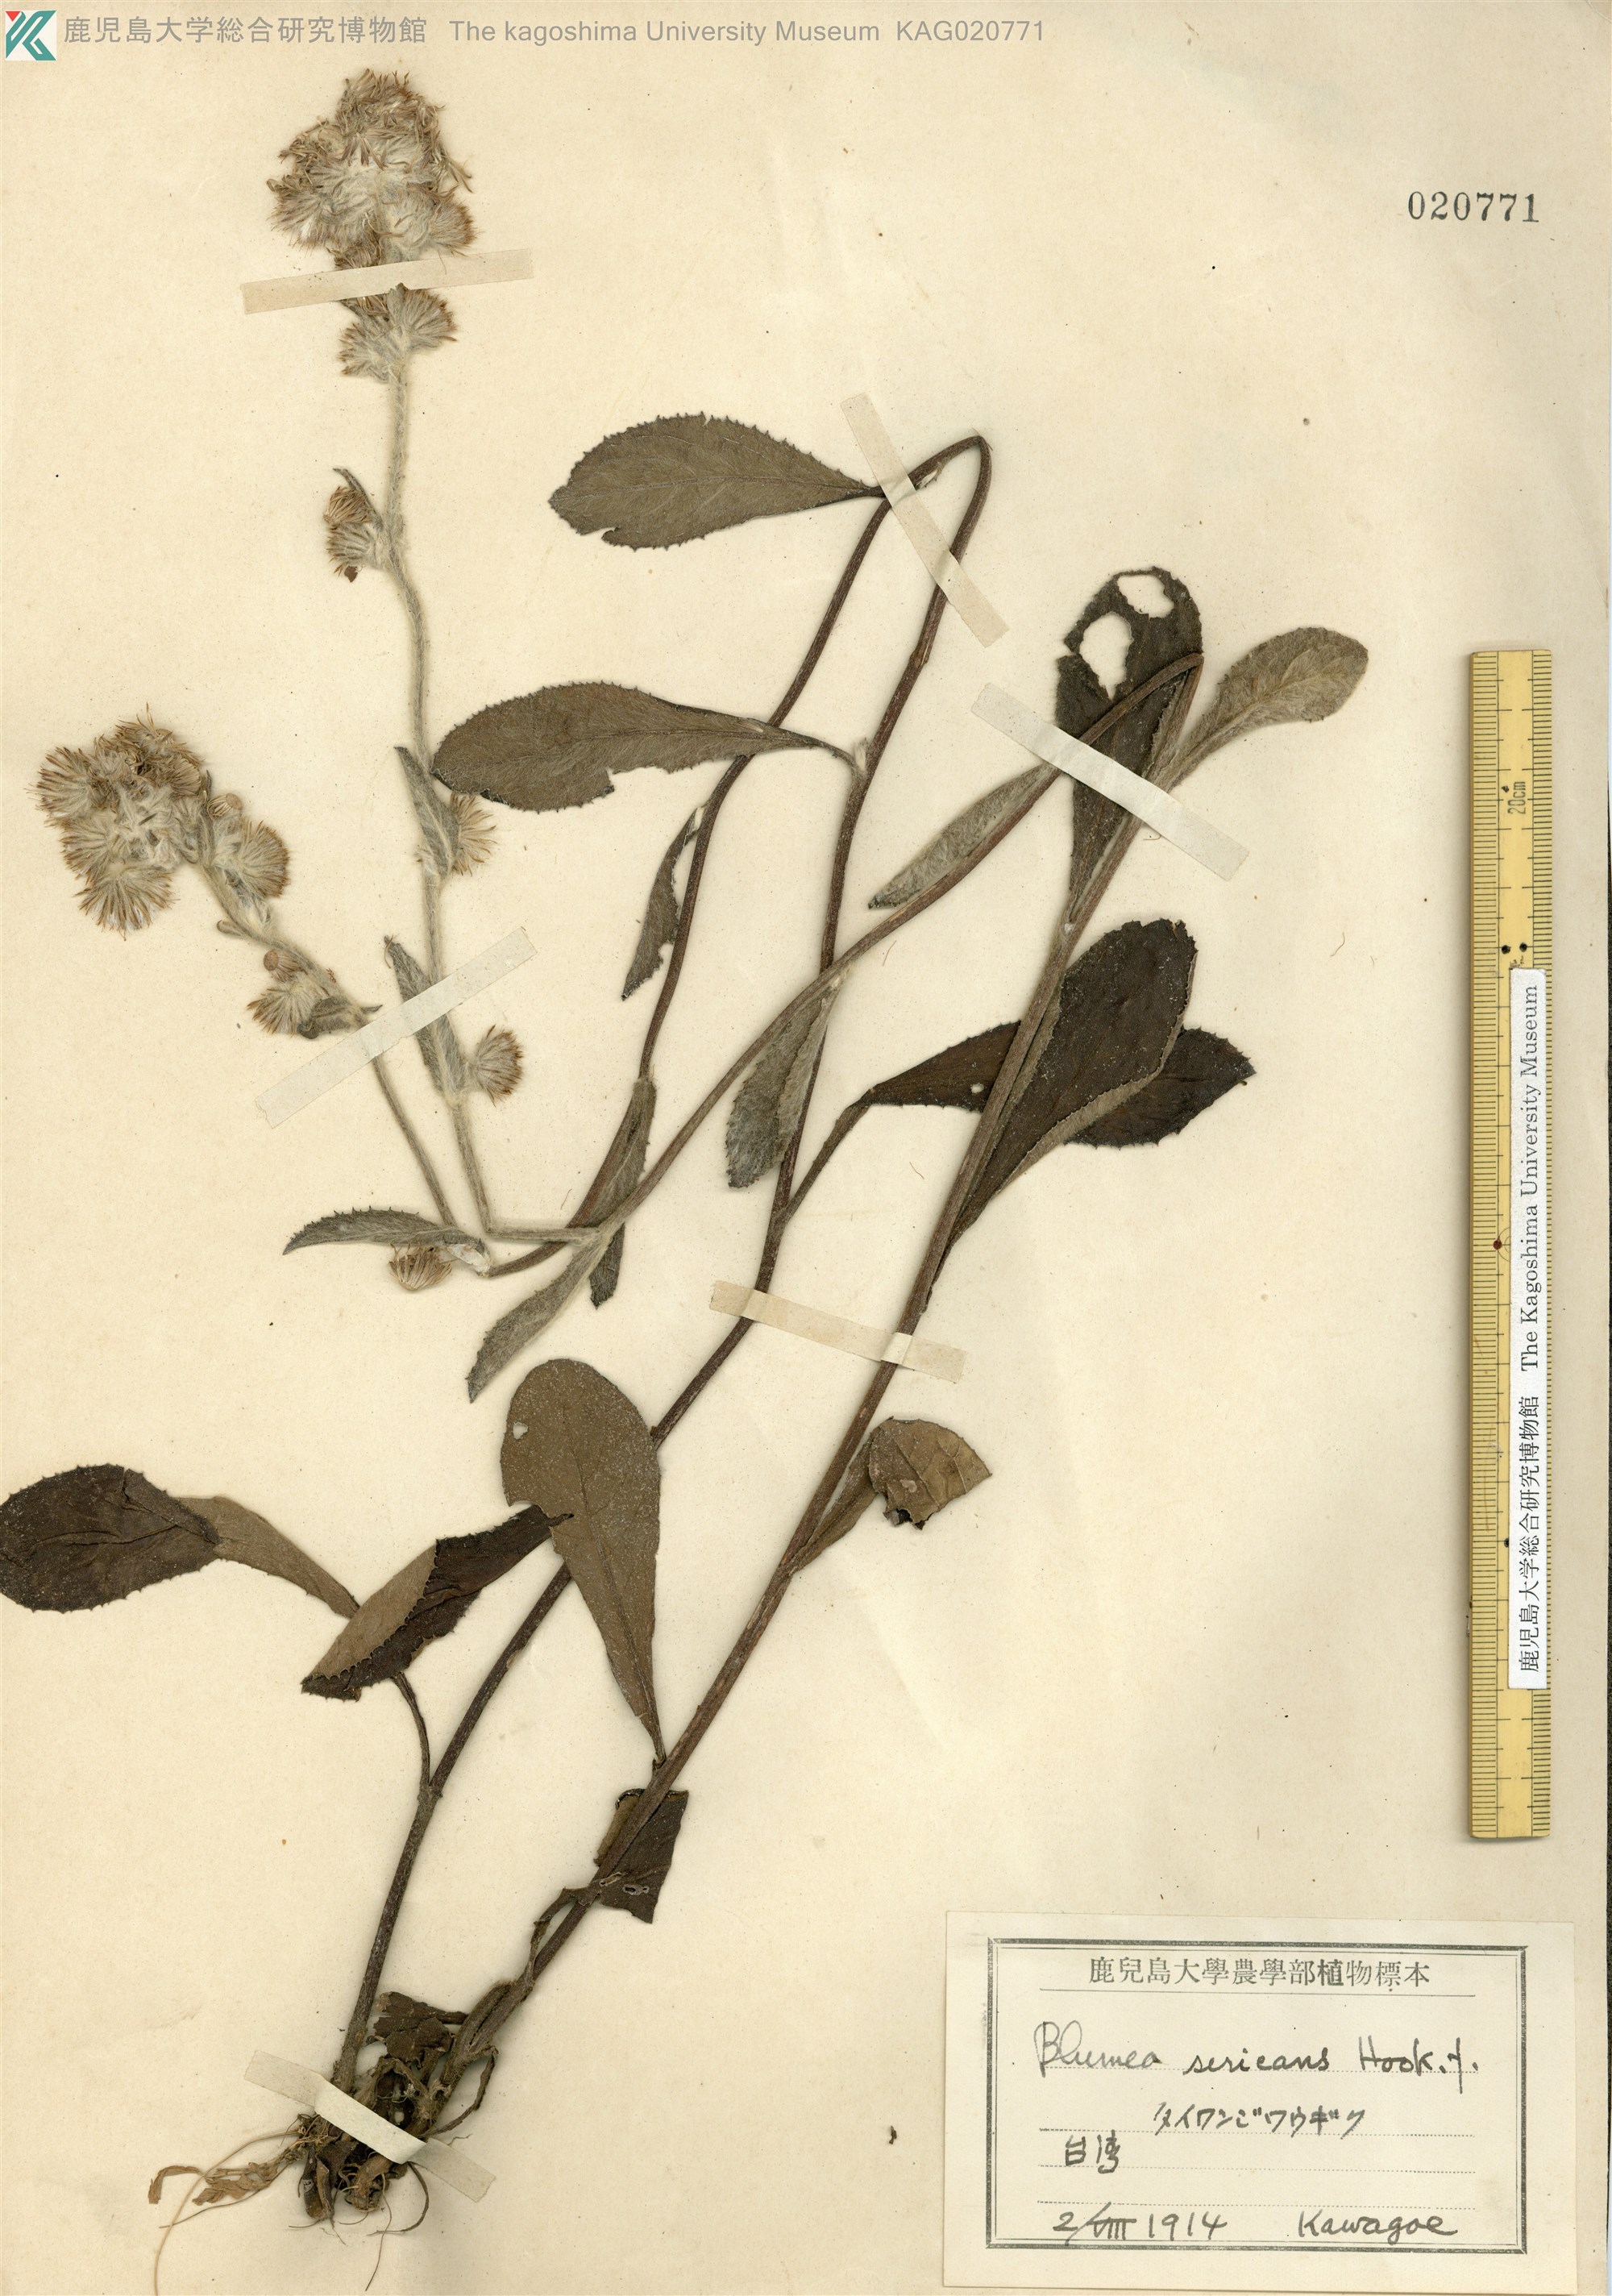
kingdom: Plantae
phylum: Tracheophyta
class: Magnoliopsida
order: Asterales
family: Asteraceae
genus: Blumea
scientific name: Blumea hieraciifolia
